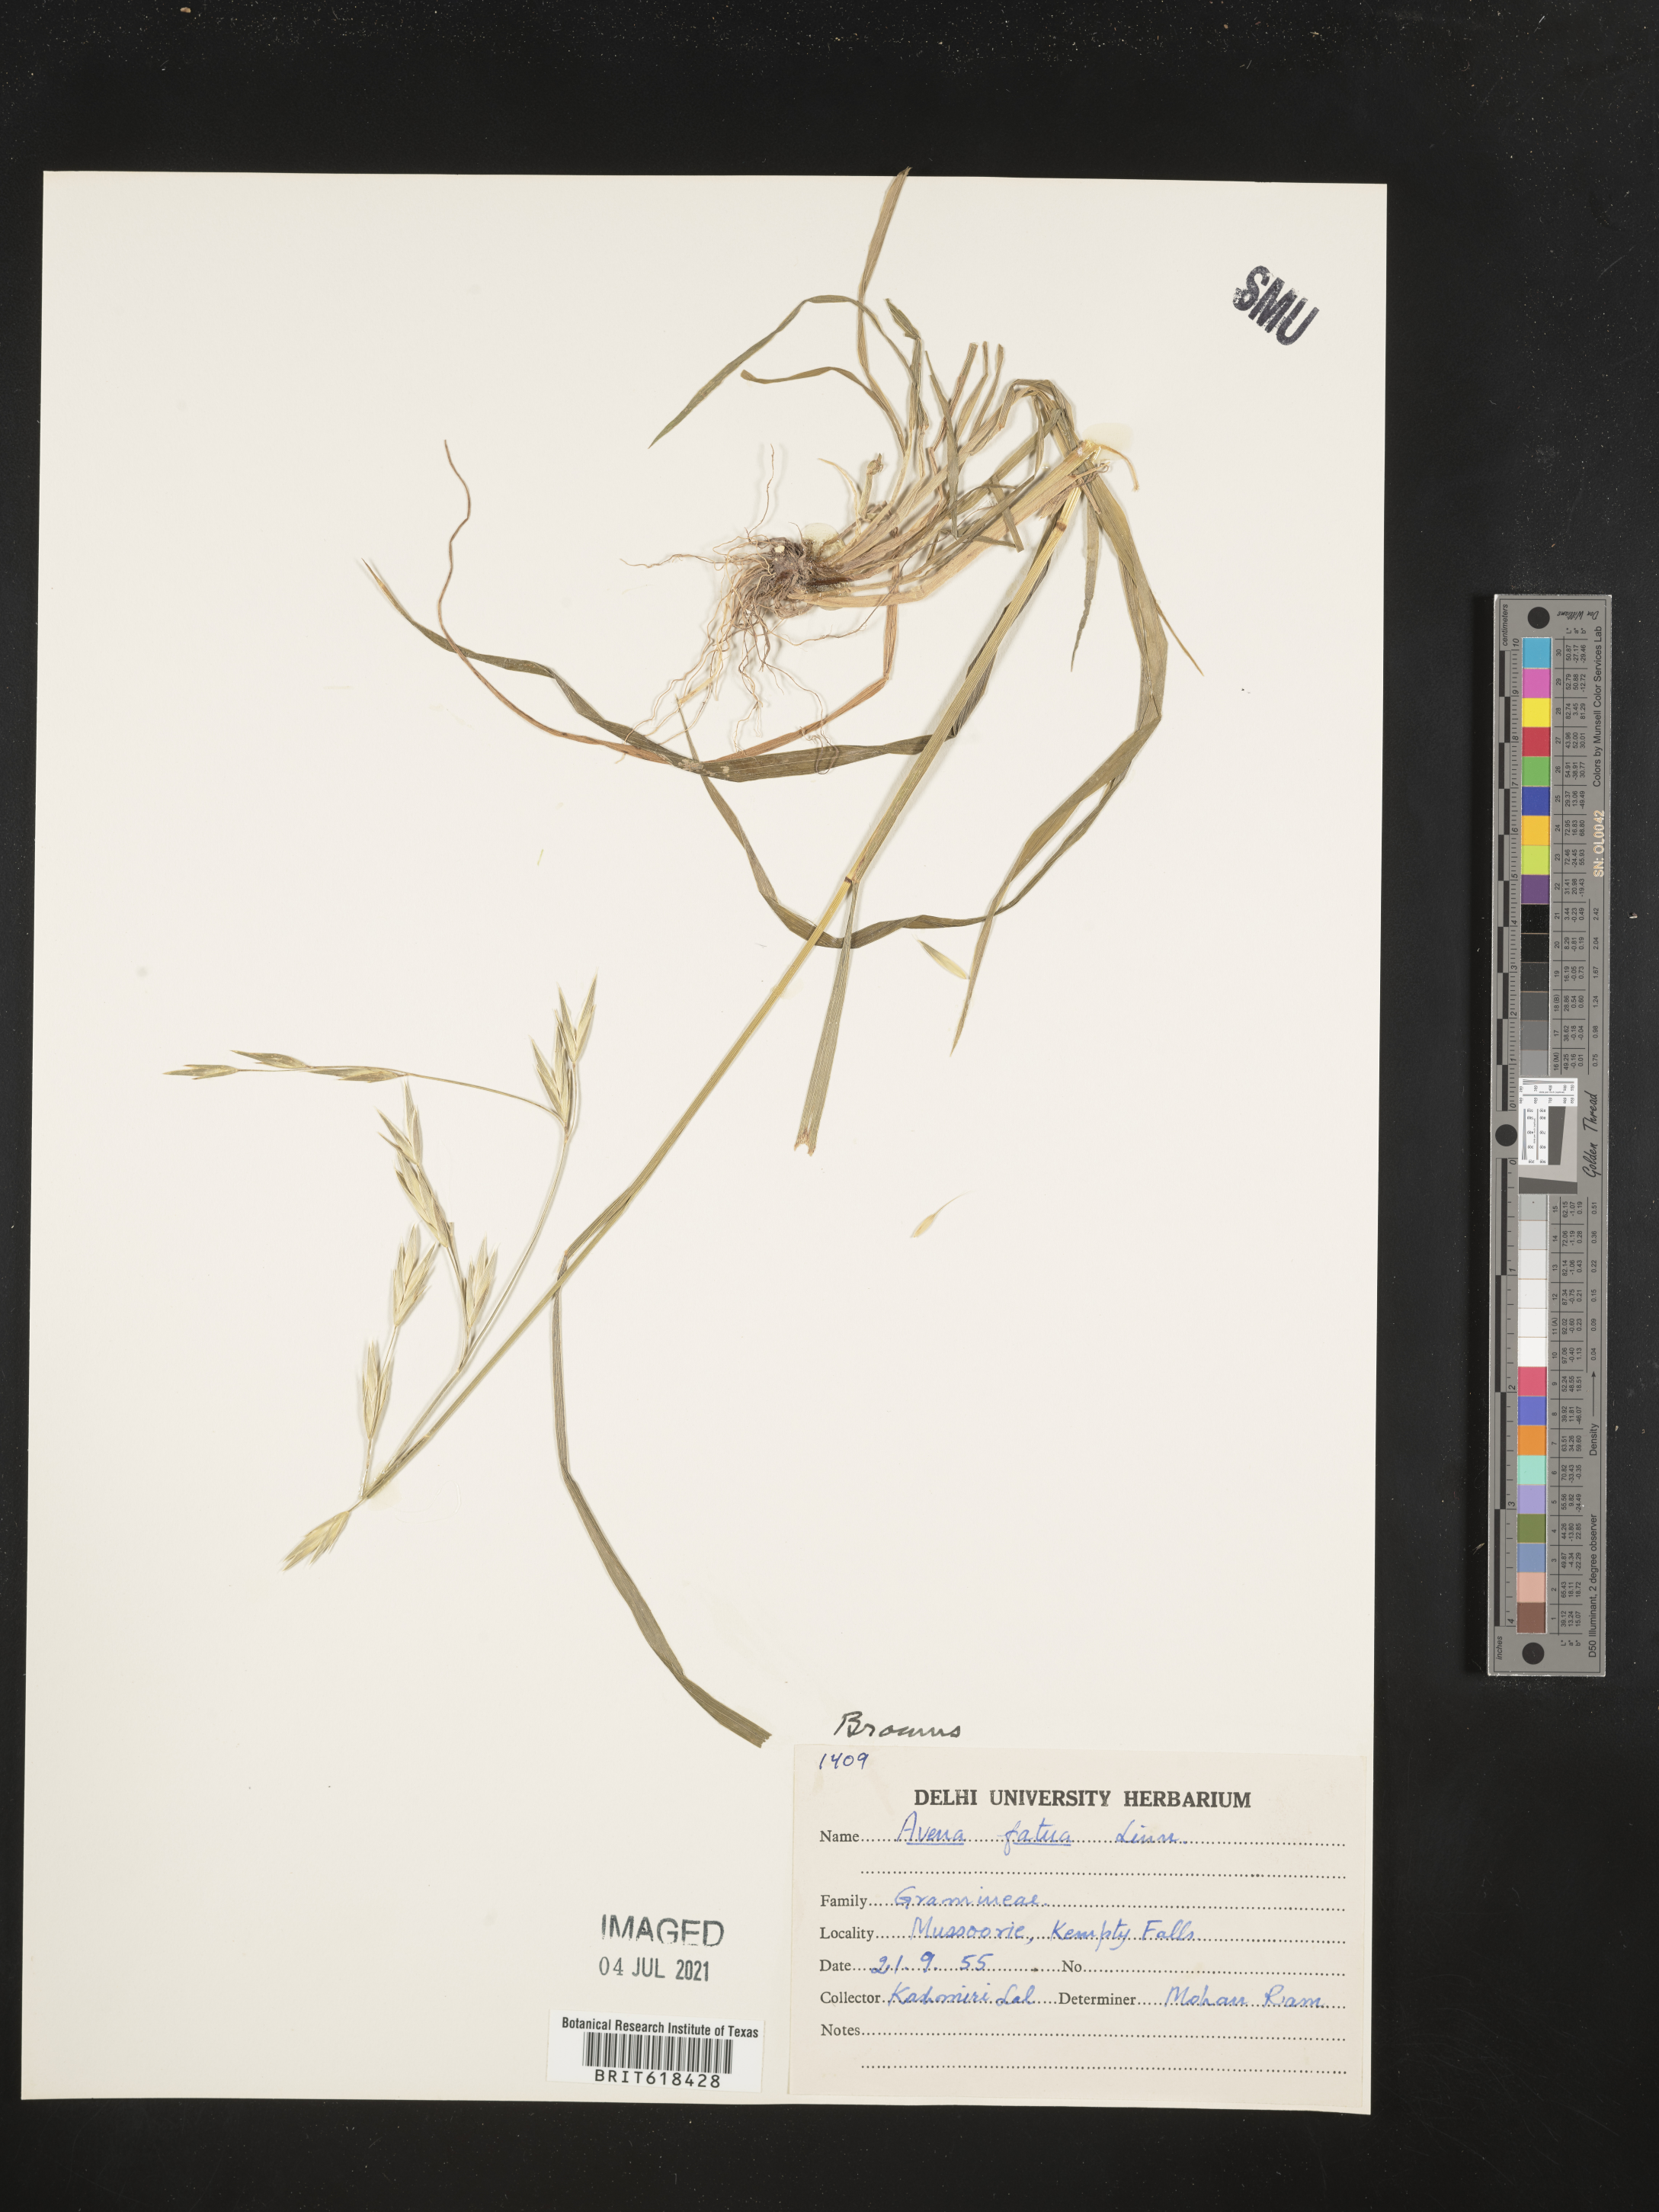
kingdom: Plantae
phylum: Tracheophyta
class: Liliopsida
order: Poales
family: Poaceae
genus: Avena
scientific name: Avena fatua
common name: Wild oat
